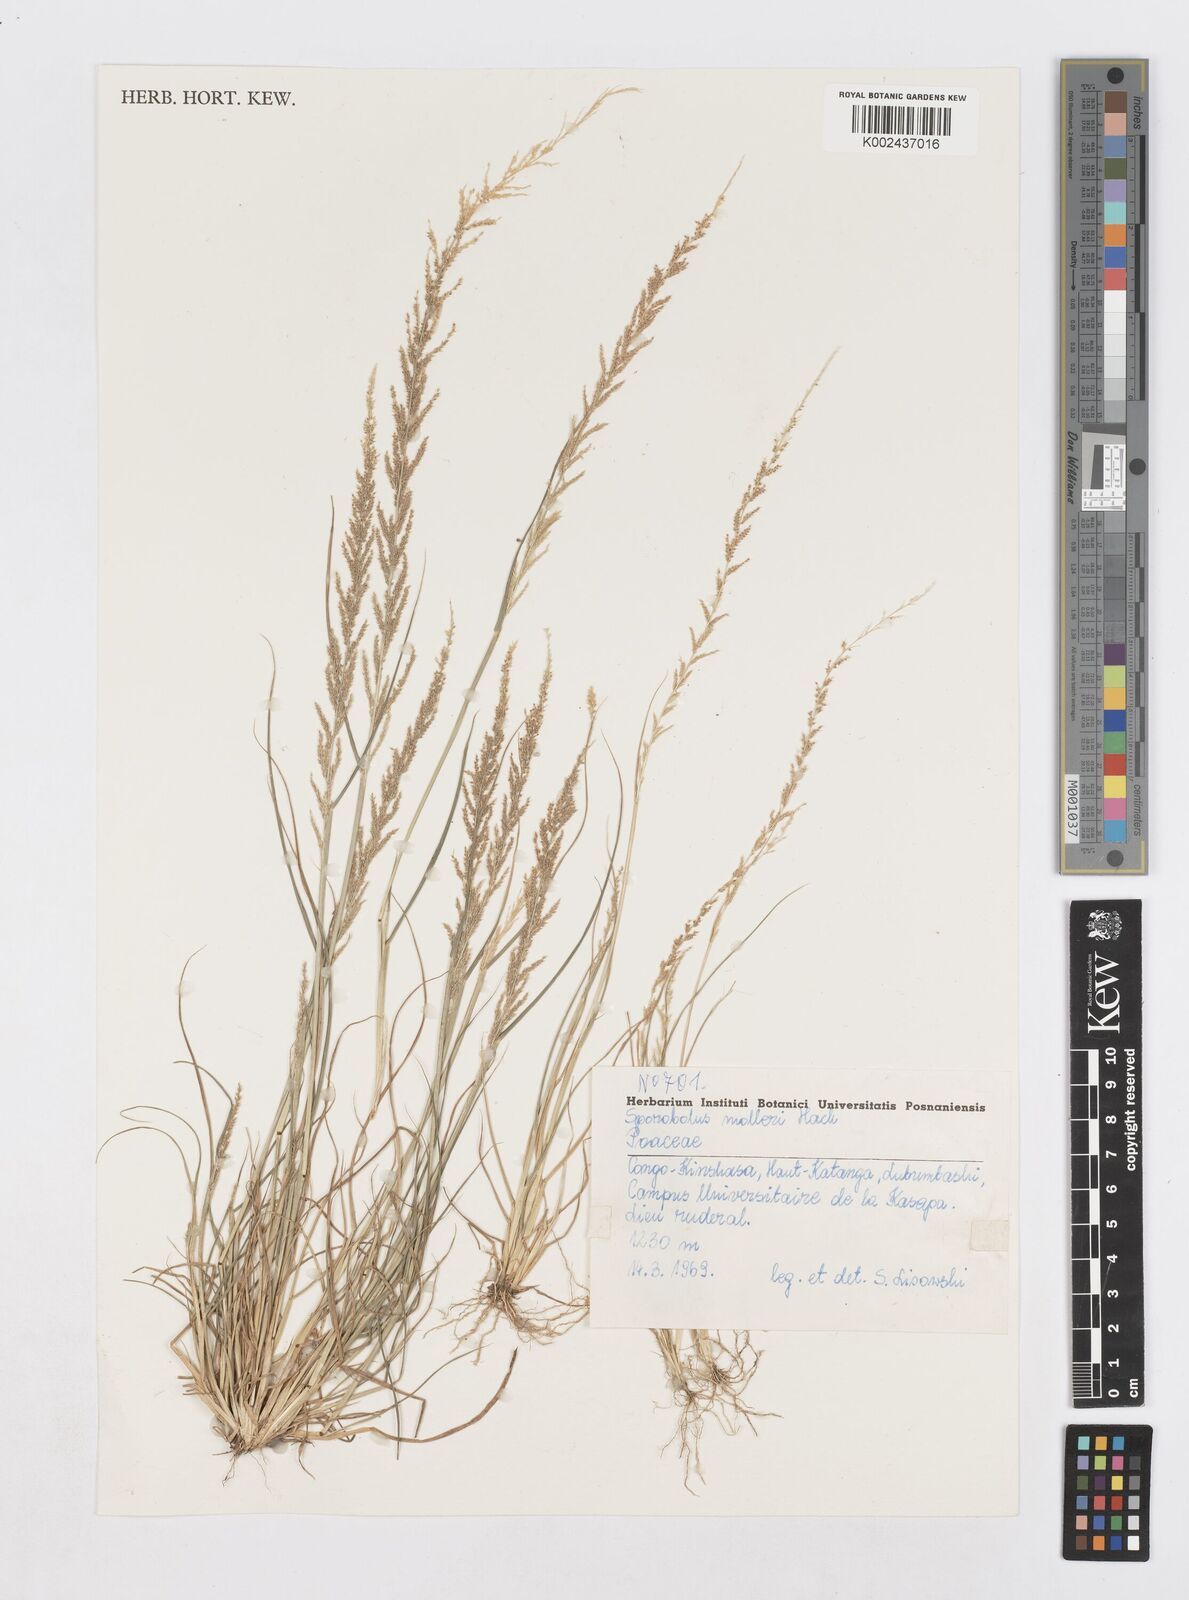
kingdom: Plantae
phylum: Tracheophyta
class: Liliopsida
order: Poales
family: Poaceae
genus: Sporobolus
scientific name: Sporobolus molleri
